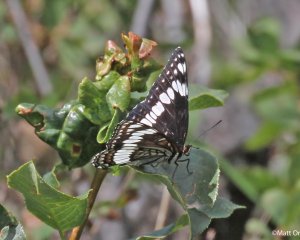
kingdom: Animalia
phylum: Arthropoda
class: Insecta
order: Lepidoptera
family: Nymphalidae
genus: Limenitis
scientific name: Limenitis weidemeyerii
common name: Weidemeyer's Admiral
